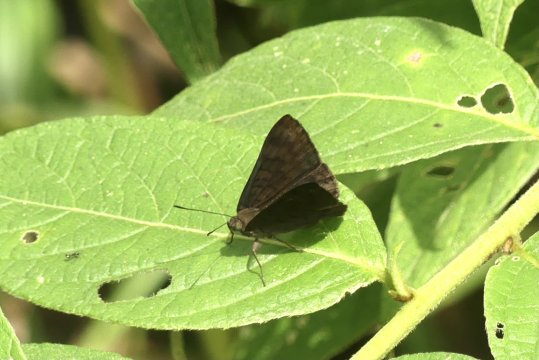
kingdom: Animalia
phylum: Arthropoda
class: Insecta
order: Lepidoptera
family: Lycaenidae
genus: Emesis
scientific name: Emesis ocypore
